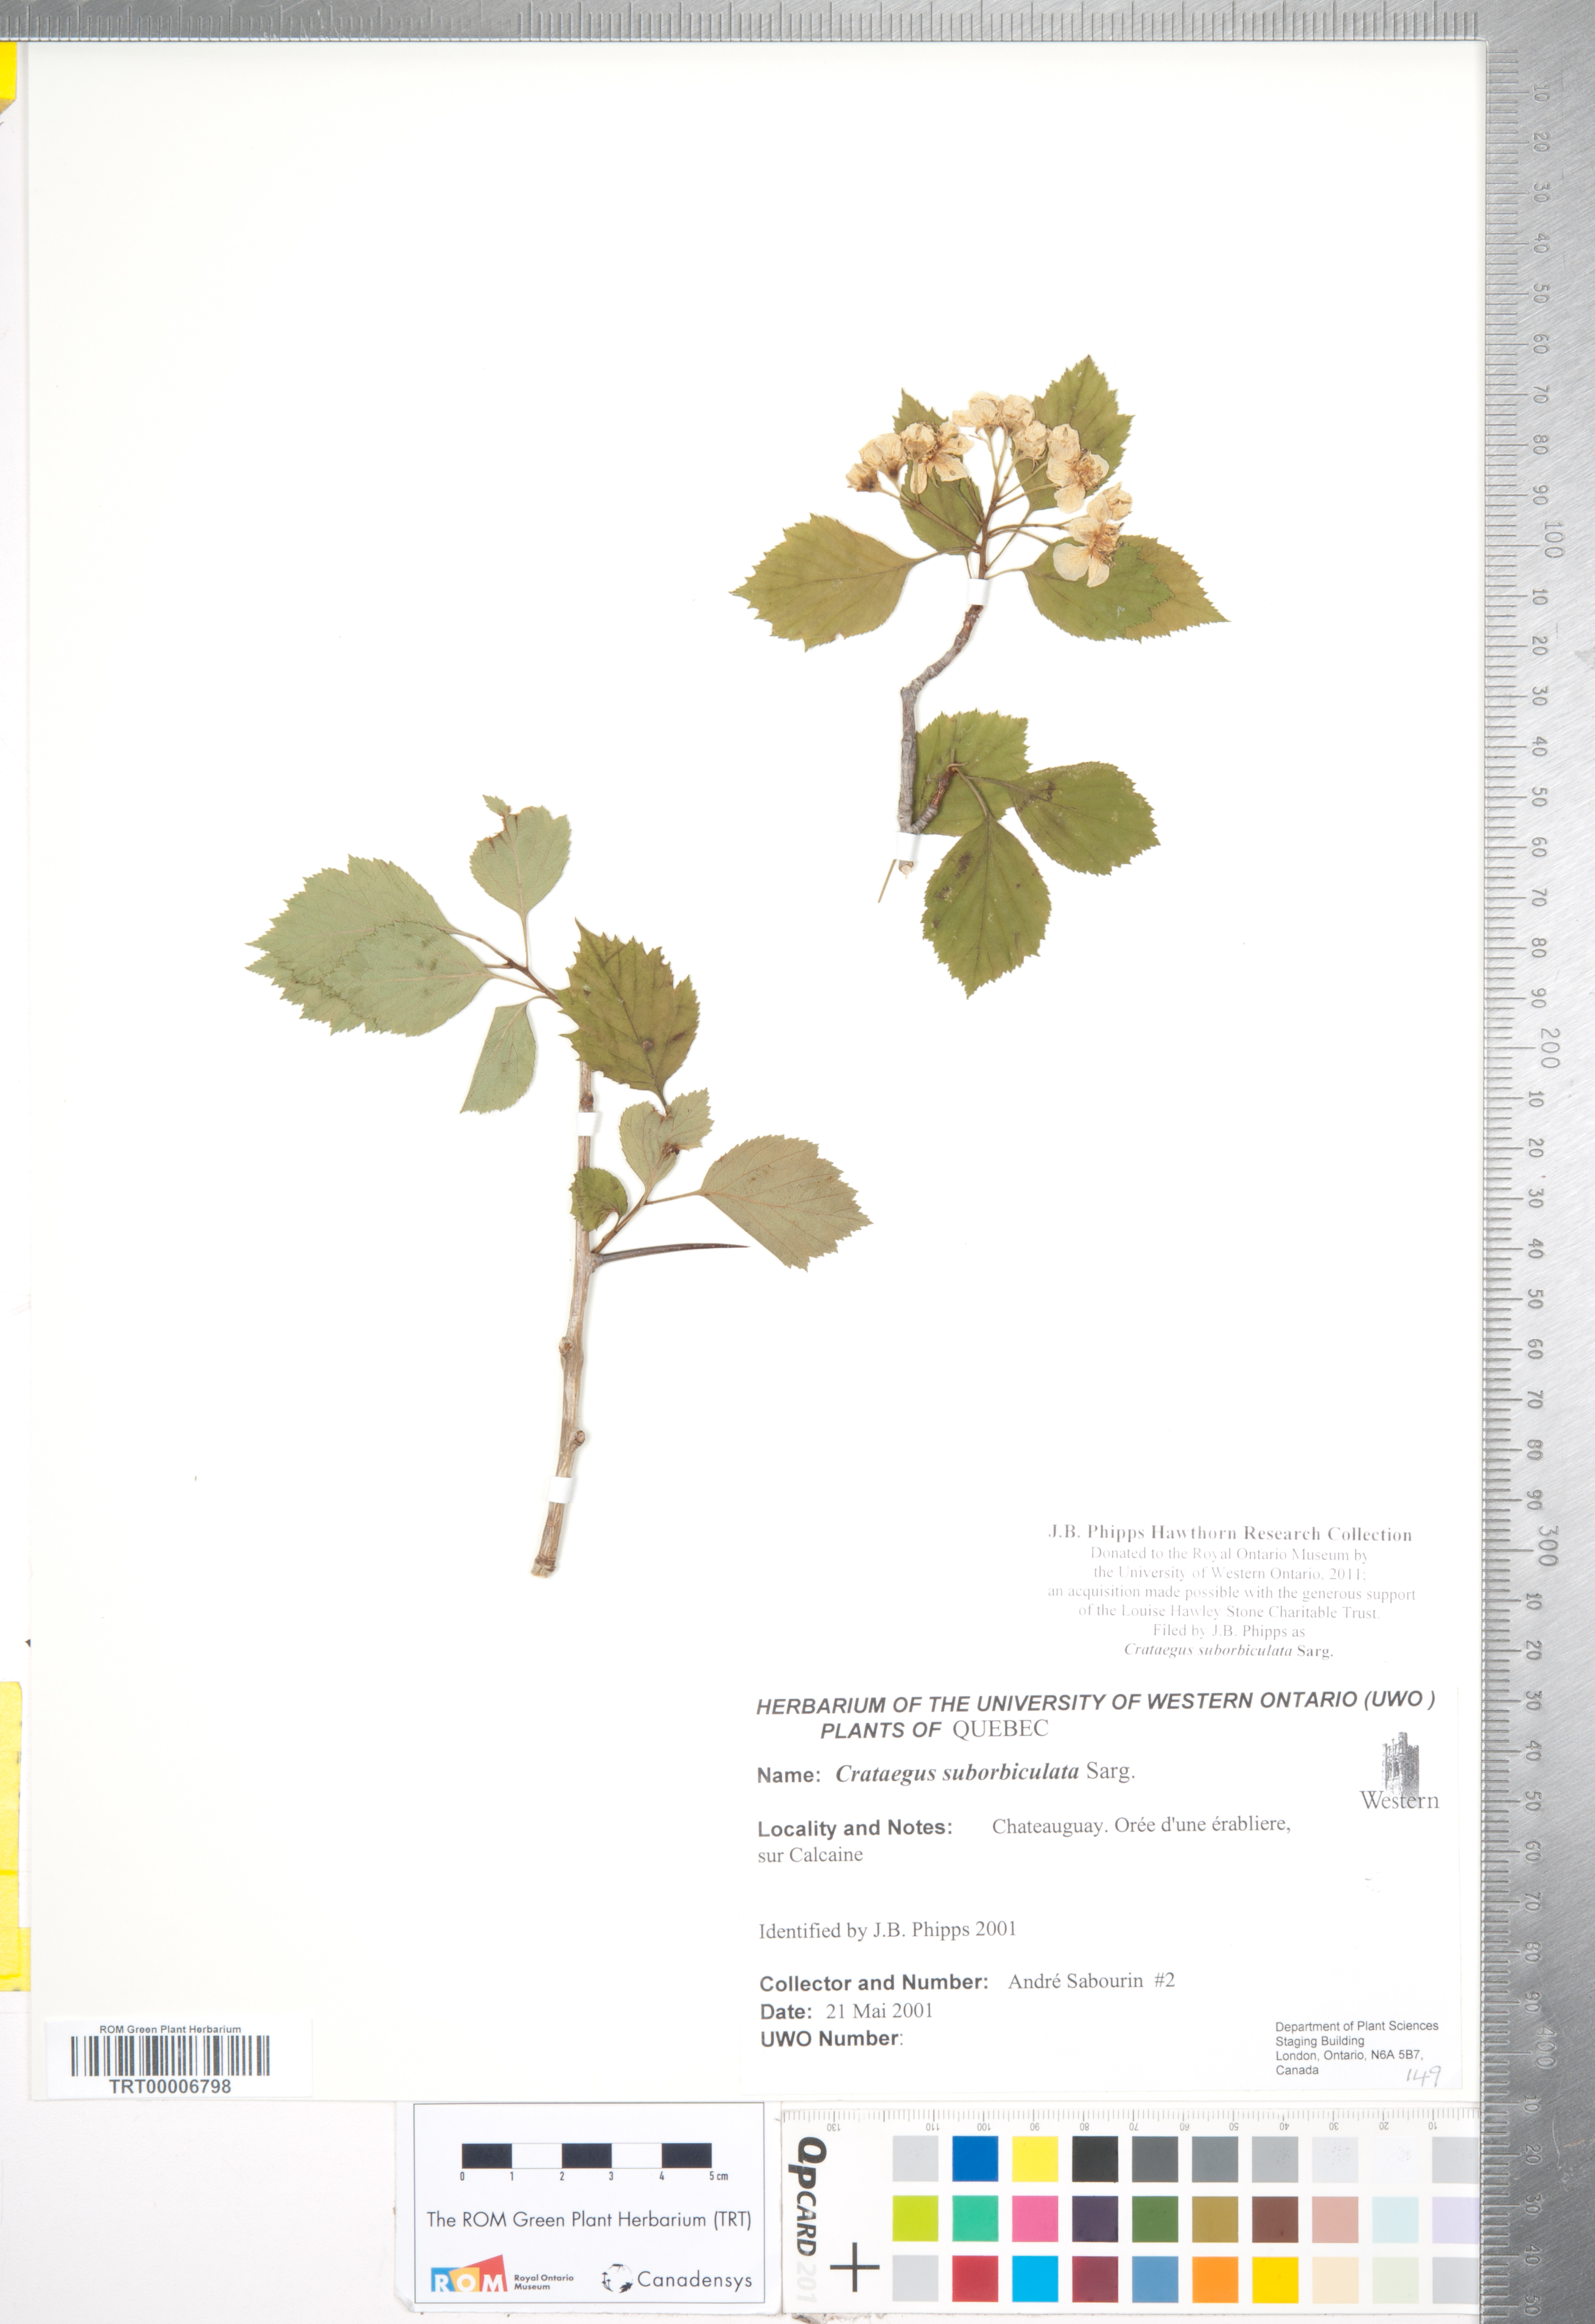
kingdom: Plantae
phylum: Tracheophyta
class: Magnoliopsida
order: Rosales
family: Rosaceae
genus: Crataegus
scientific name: Crataegus suborbiculata
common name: Caughnawaga hawthorn
